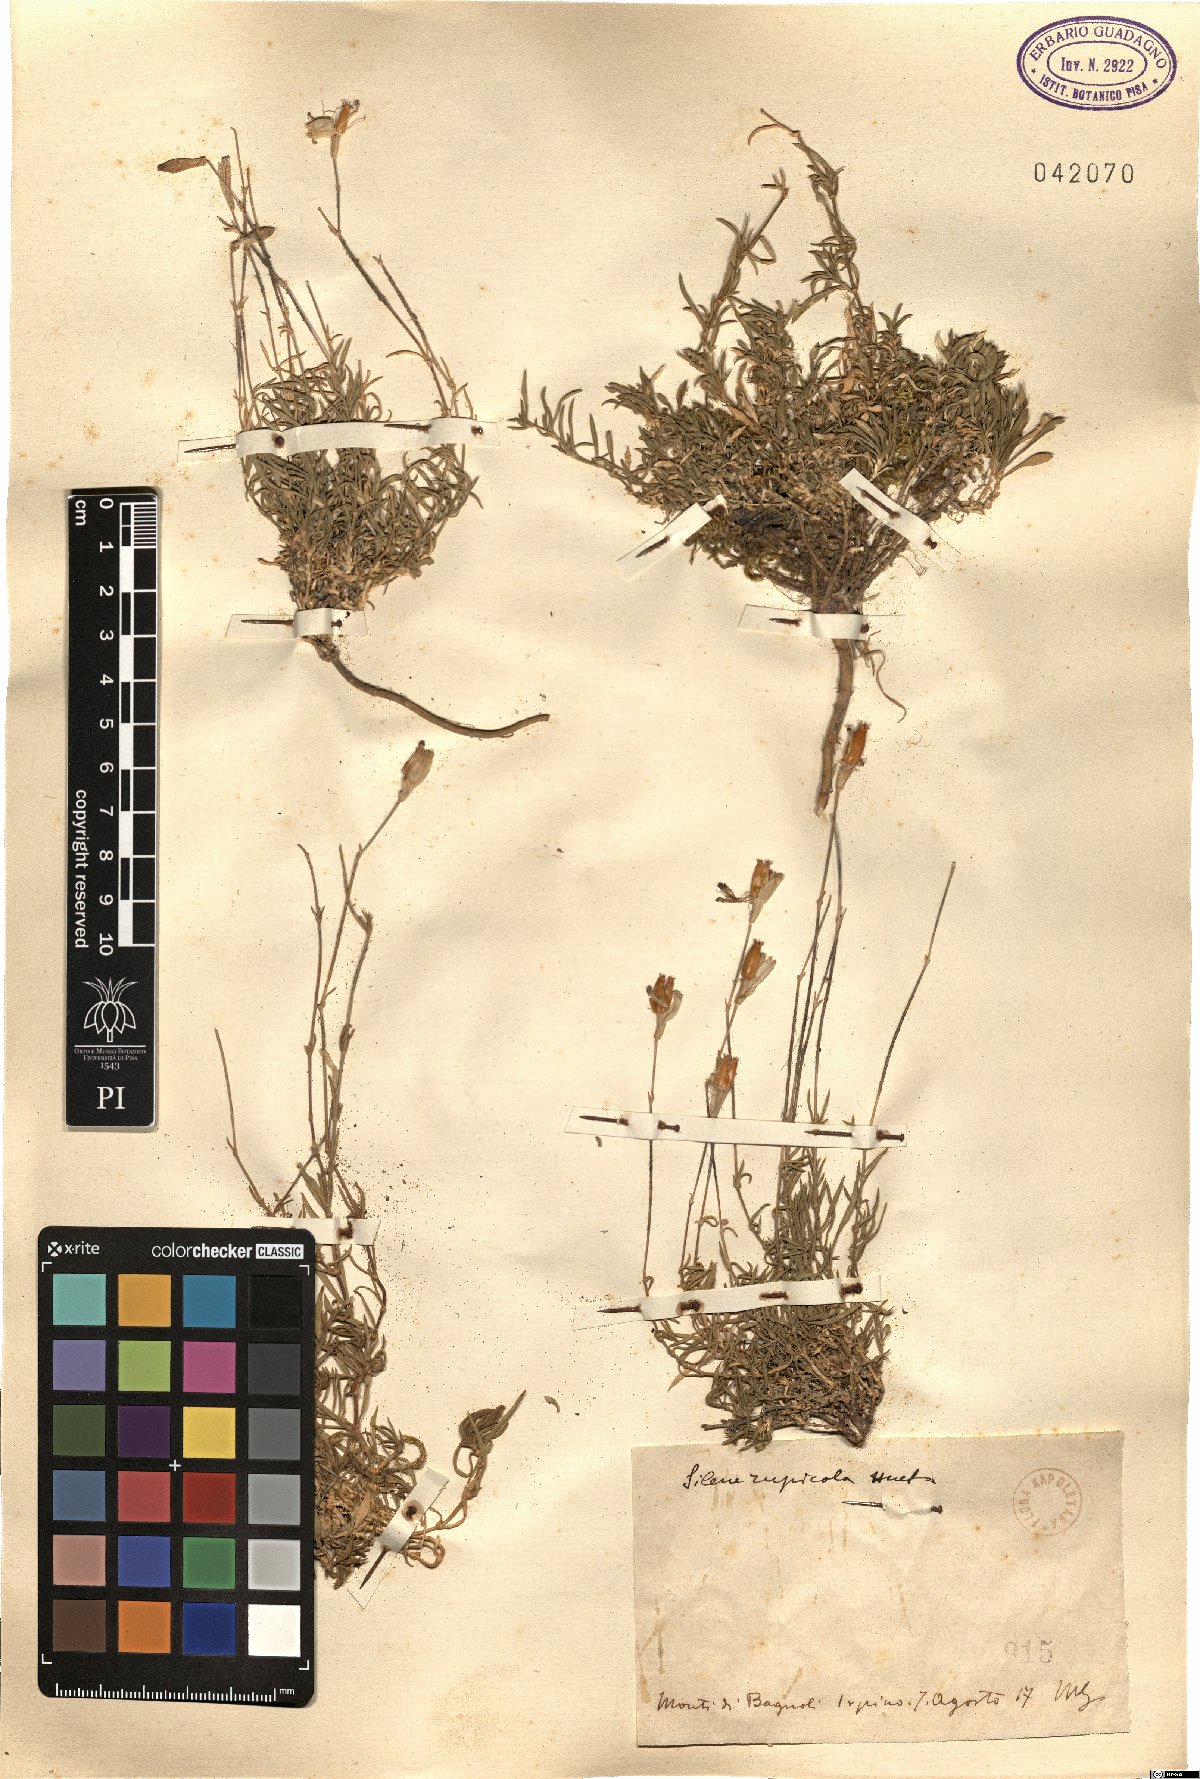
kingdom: Plantae
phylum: Tracheophyta
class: Magnoliopsida
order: Caryophyllales
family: Caryophyllaceae
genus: Silene
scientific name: Silene saxifraga
